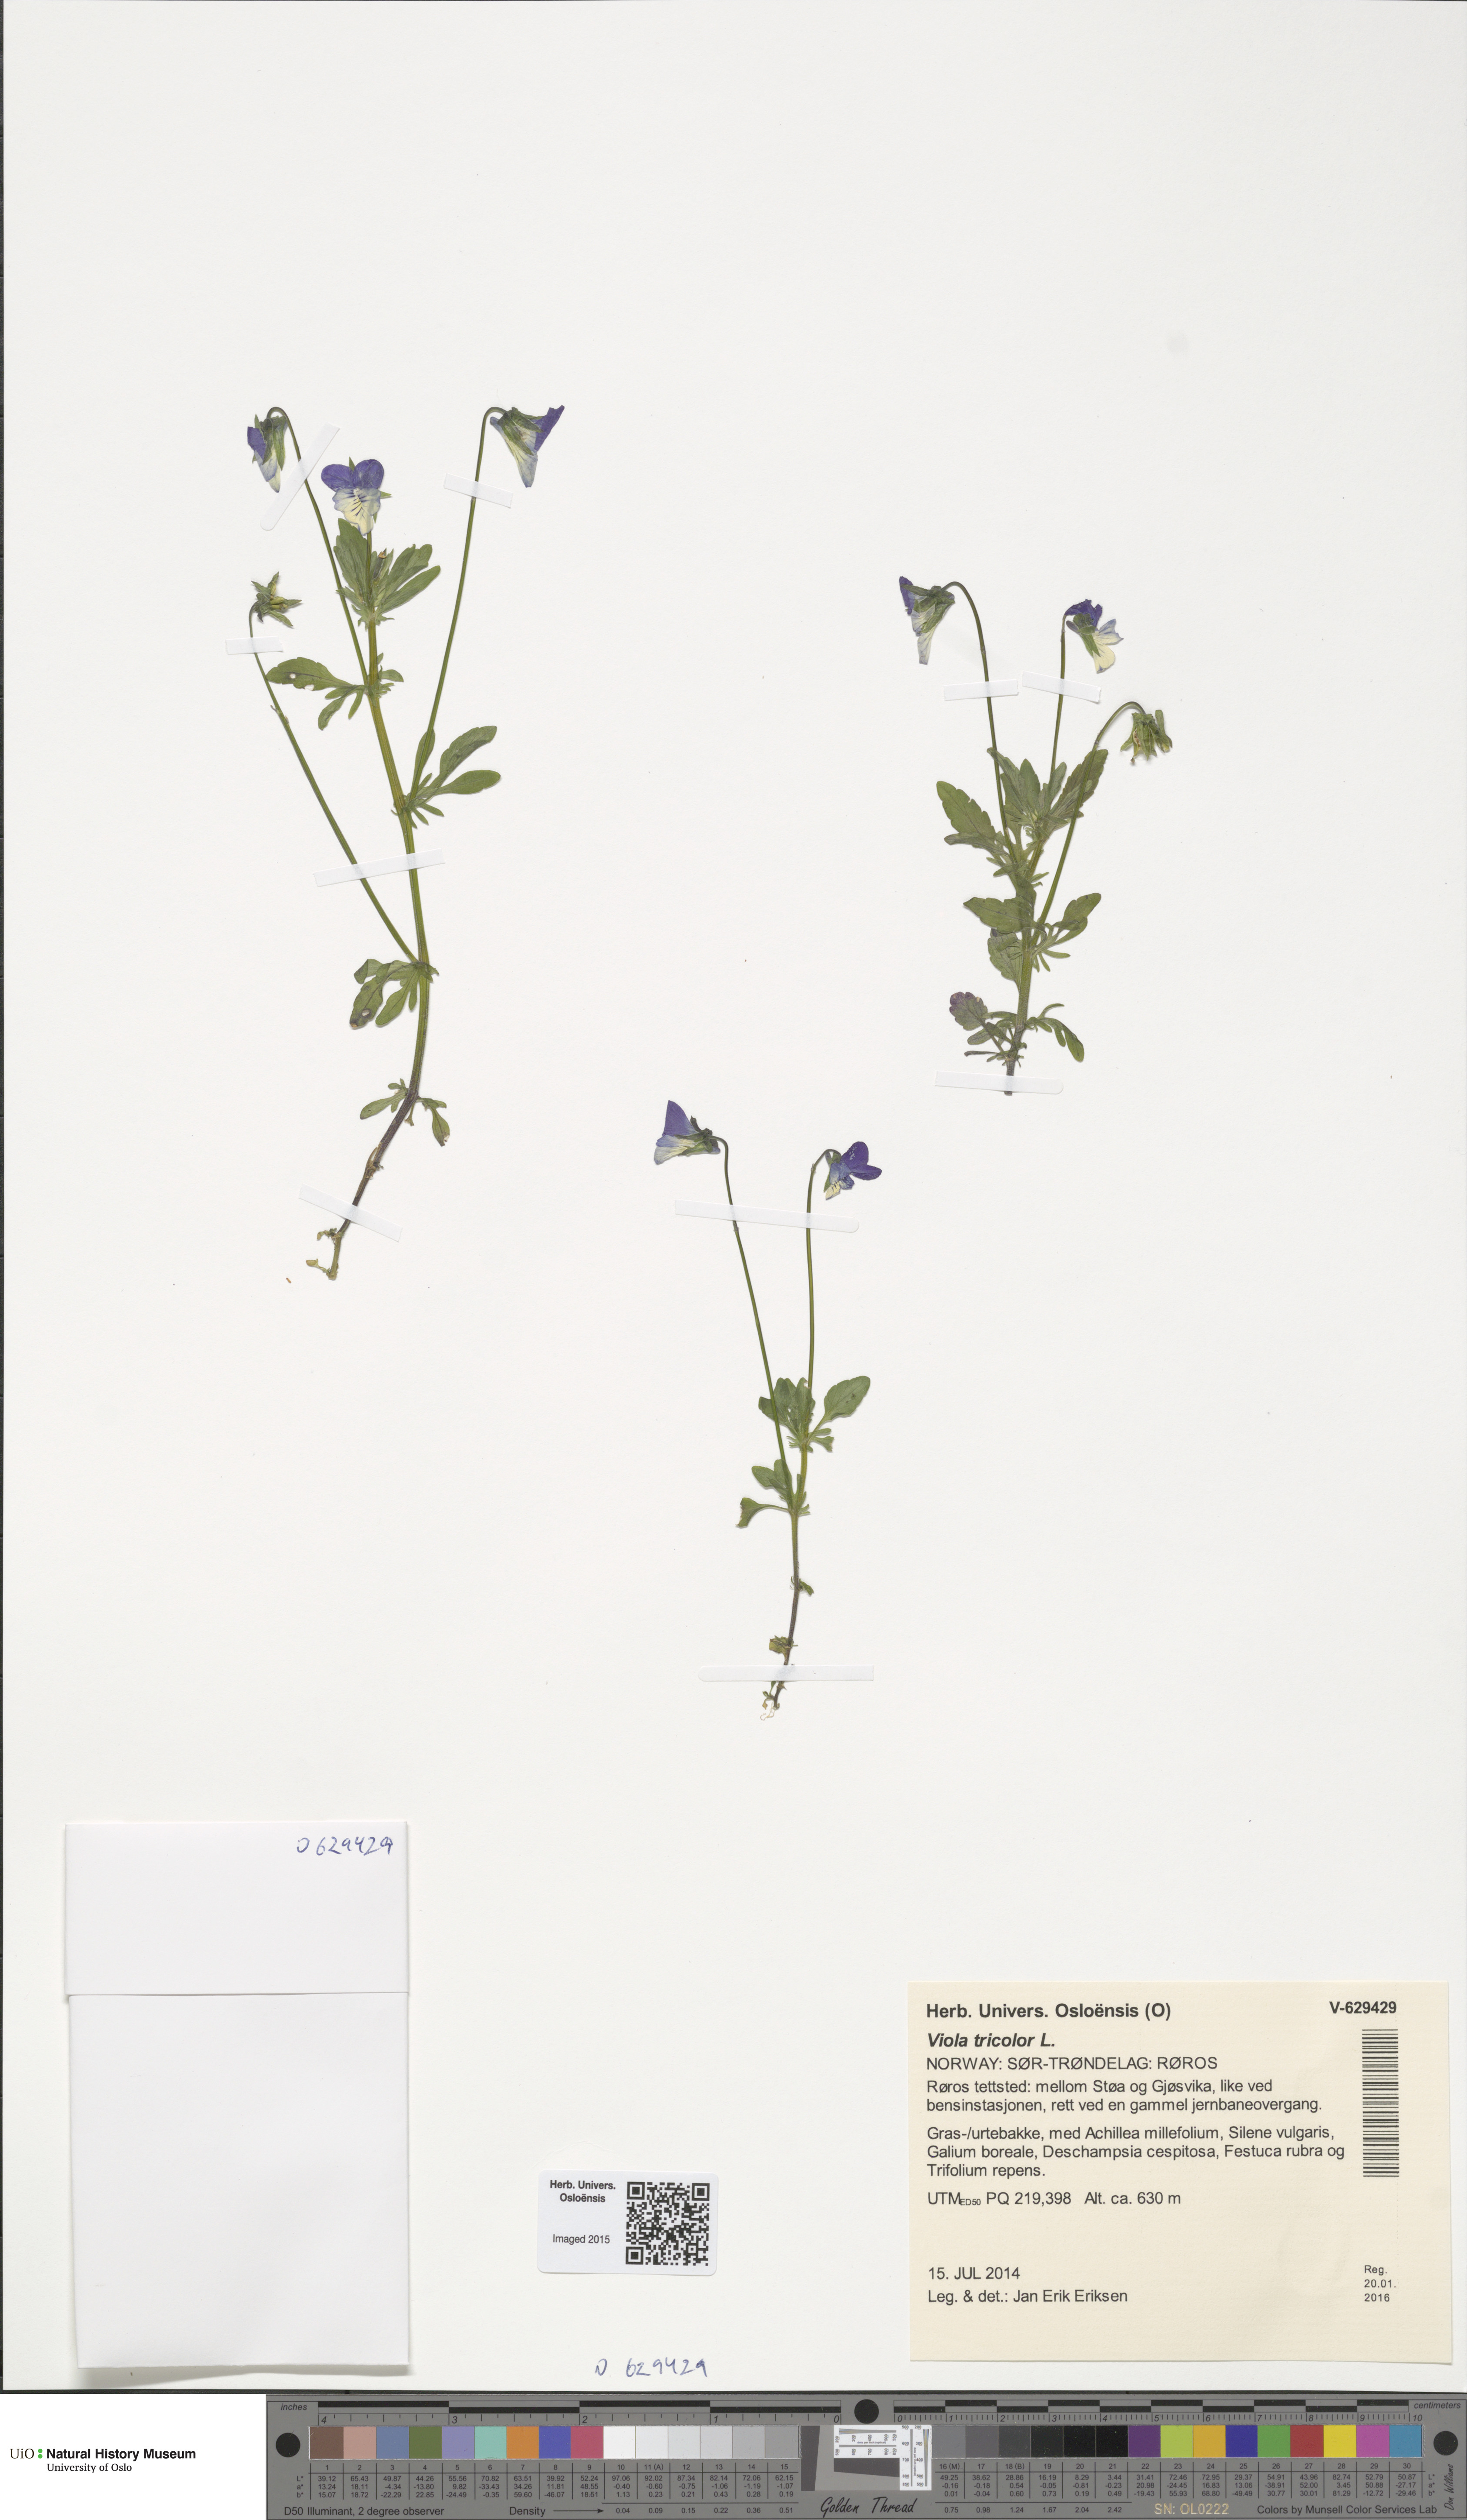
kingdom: Plantae
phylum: Tracheophyta
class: Magnoliopsida
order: Malpighiales
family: Violaceae
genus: Viola
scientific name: Viola tricolor
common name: Pansy
